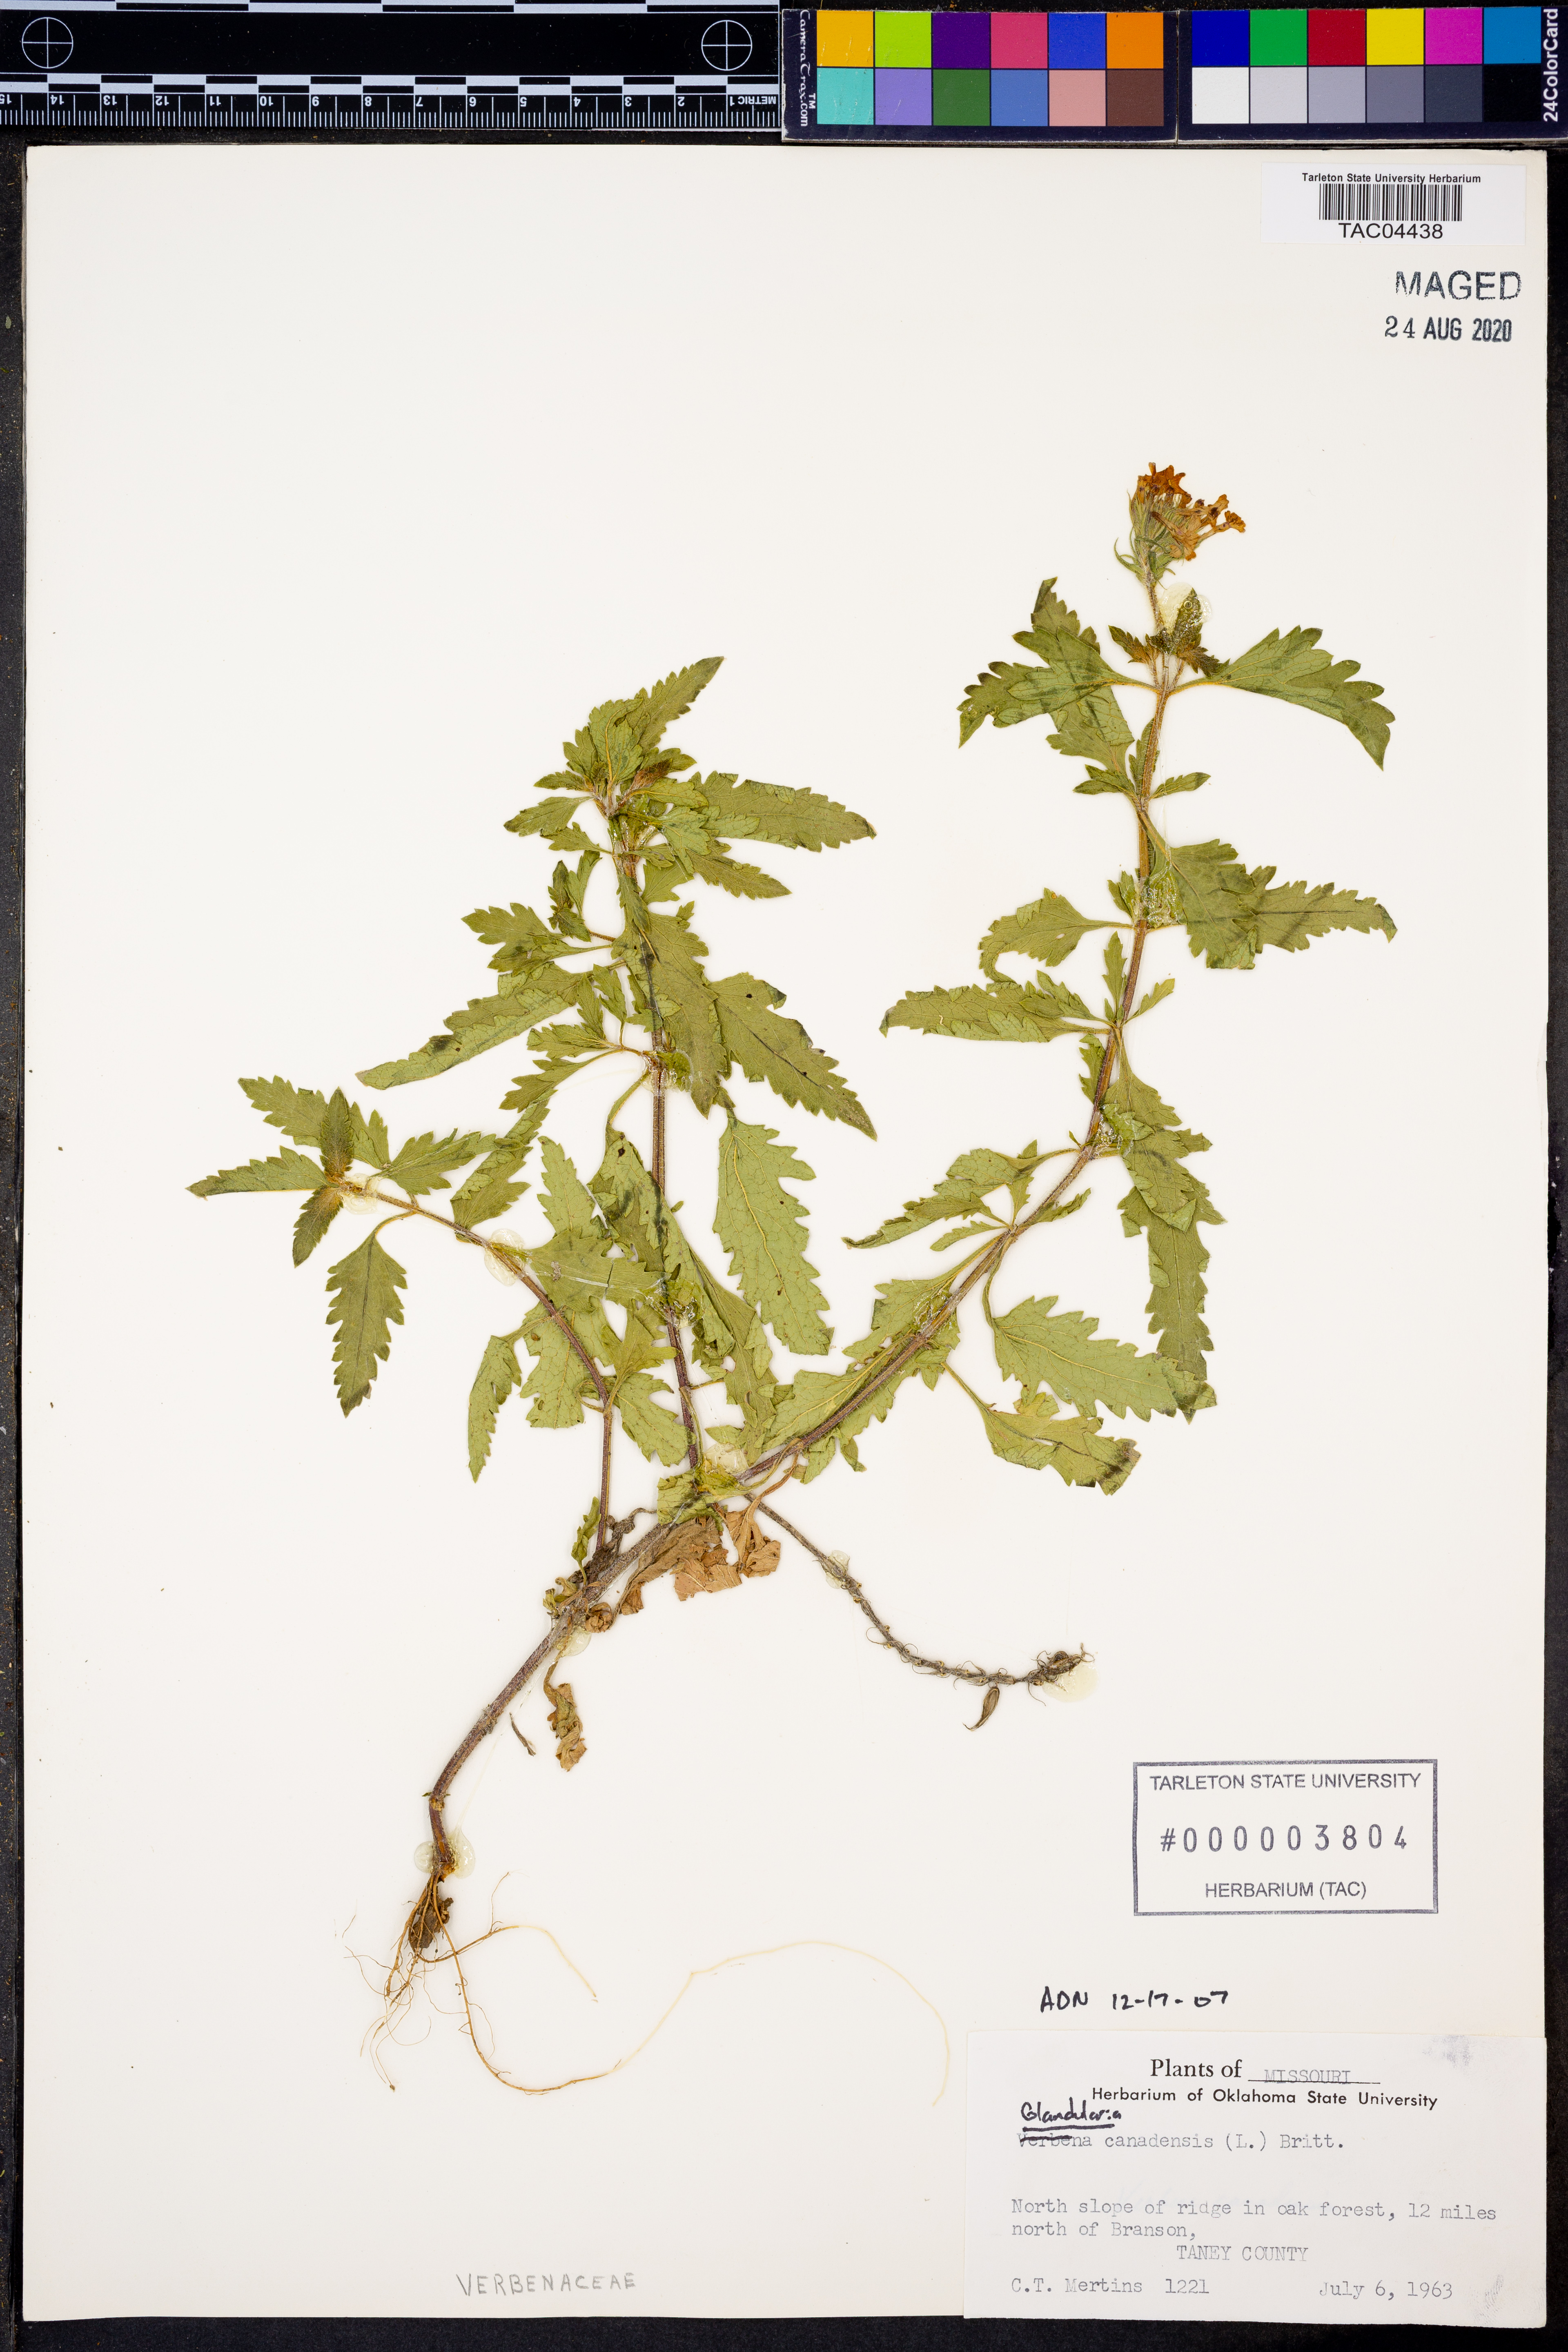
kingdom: Plantae
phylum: Tracheophyta
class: Magnoliopsida
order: Lamiales
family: Verbenaceae
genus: Verbena
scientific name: Verbena canadensis
